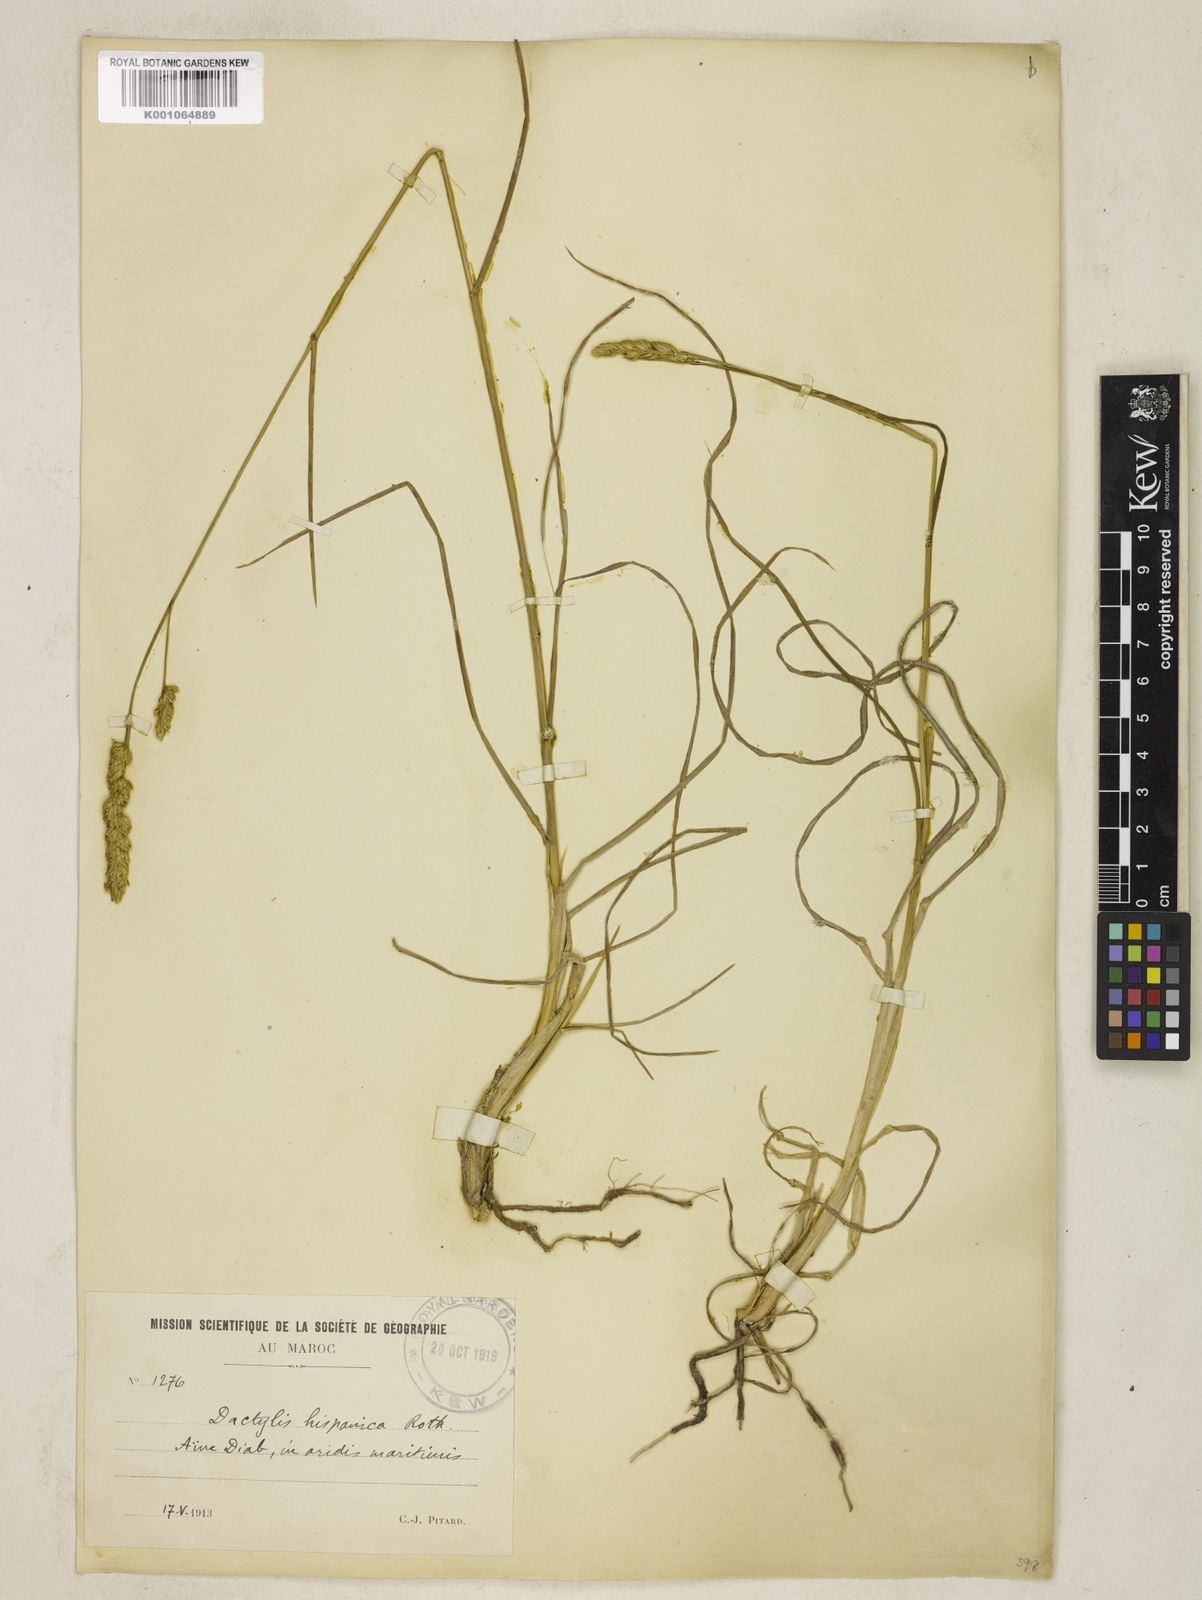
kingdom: Plantae
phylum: Tracheophyta
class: Liliopsida
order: Poales
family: Poaceae
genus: Dactylis
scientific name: Dactylis glomerata
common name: Orchardgrass
